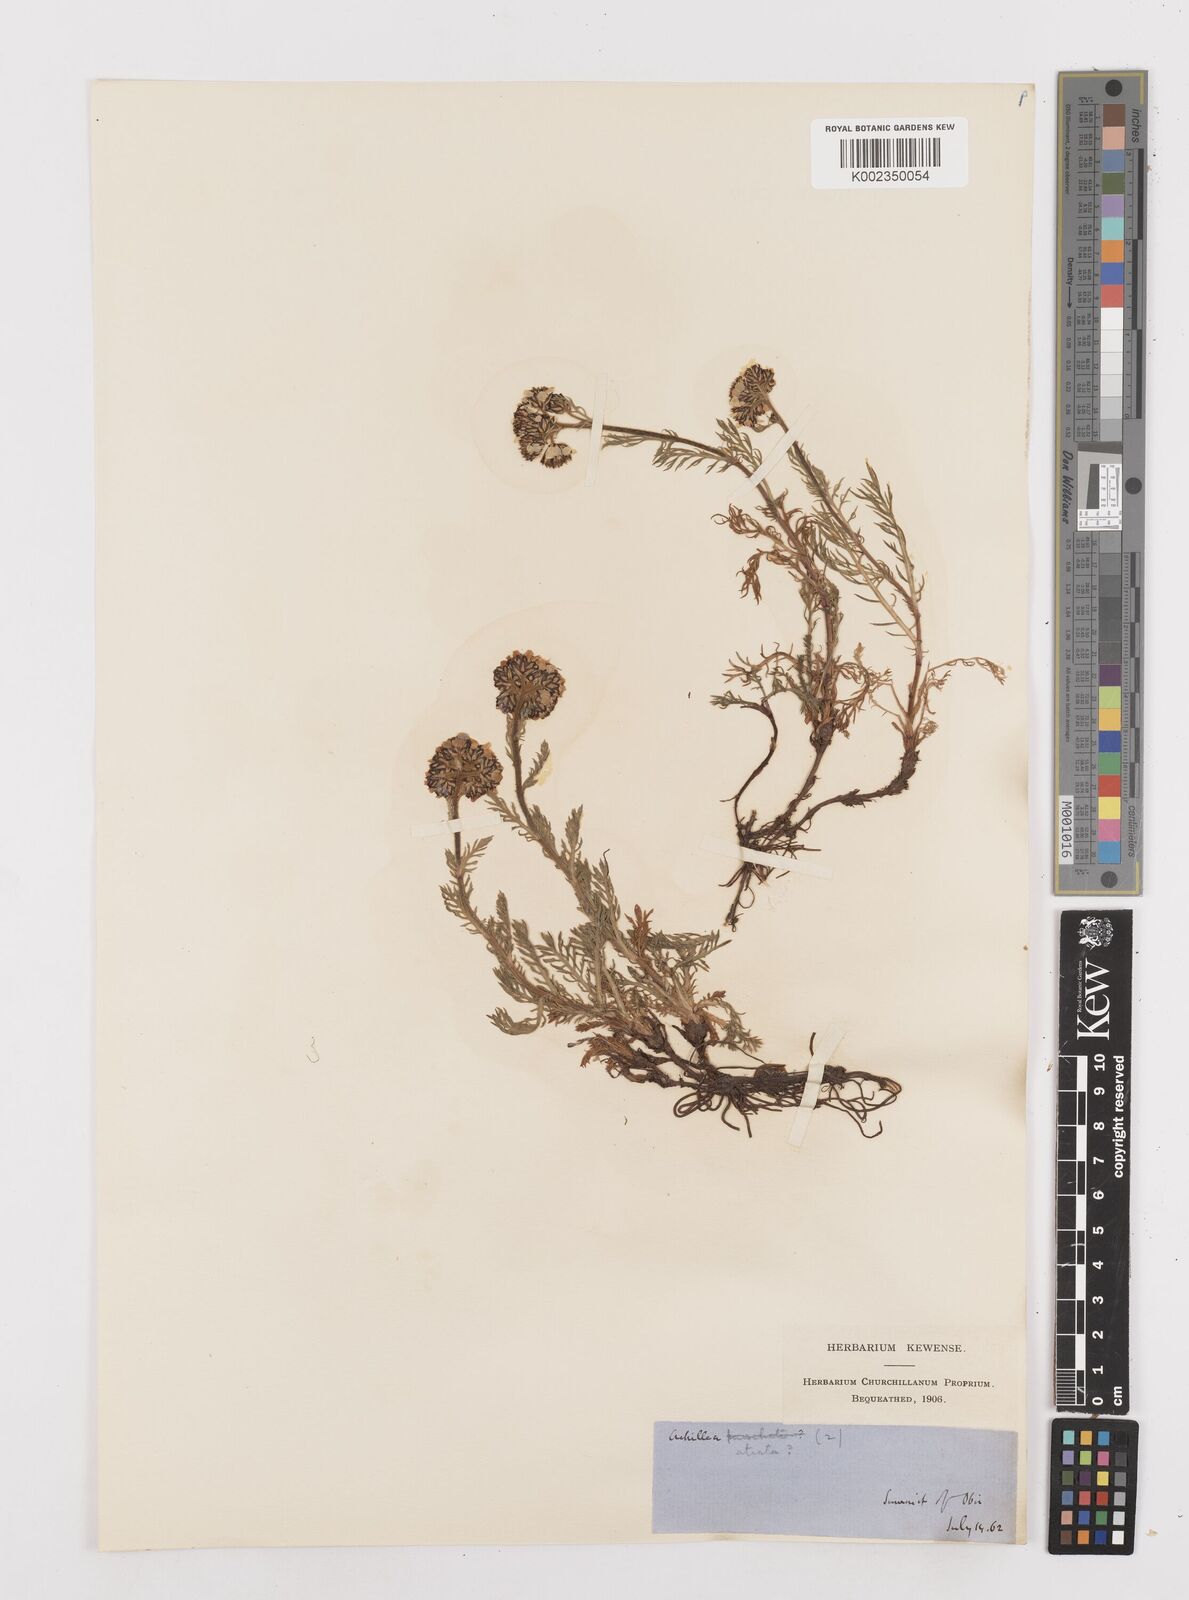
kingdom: Plantae
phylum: Tracheophyta
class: Magnoliopsida
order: Asterales
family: Asteraceae
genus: Achillea
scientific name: Achillea atrata
